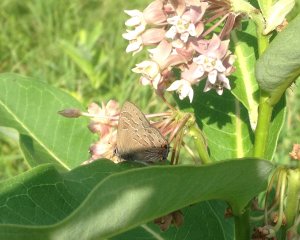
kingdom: Animalia
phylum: Arthropoda
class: Insecta
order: Lepidoptera
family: Lycaenidae
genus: Satyrium
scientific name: Satyrium liparops
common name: Striped Hairstreak
